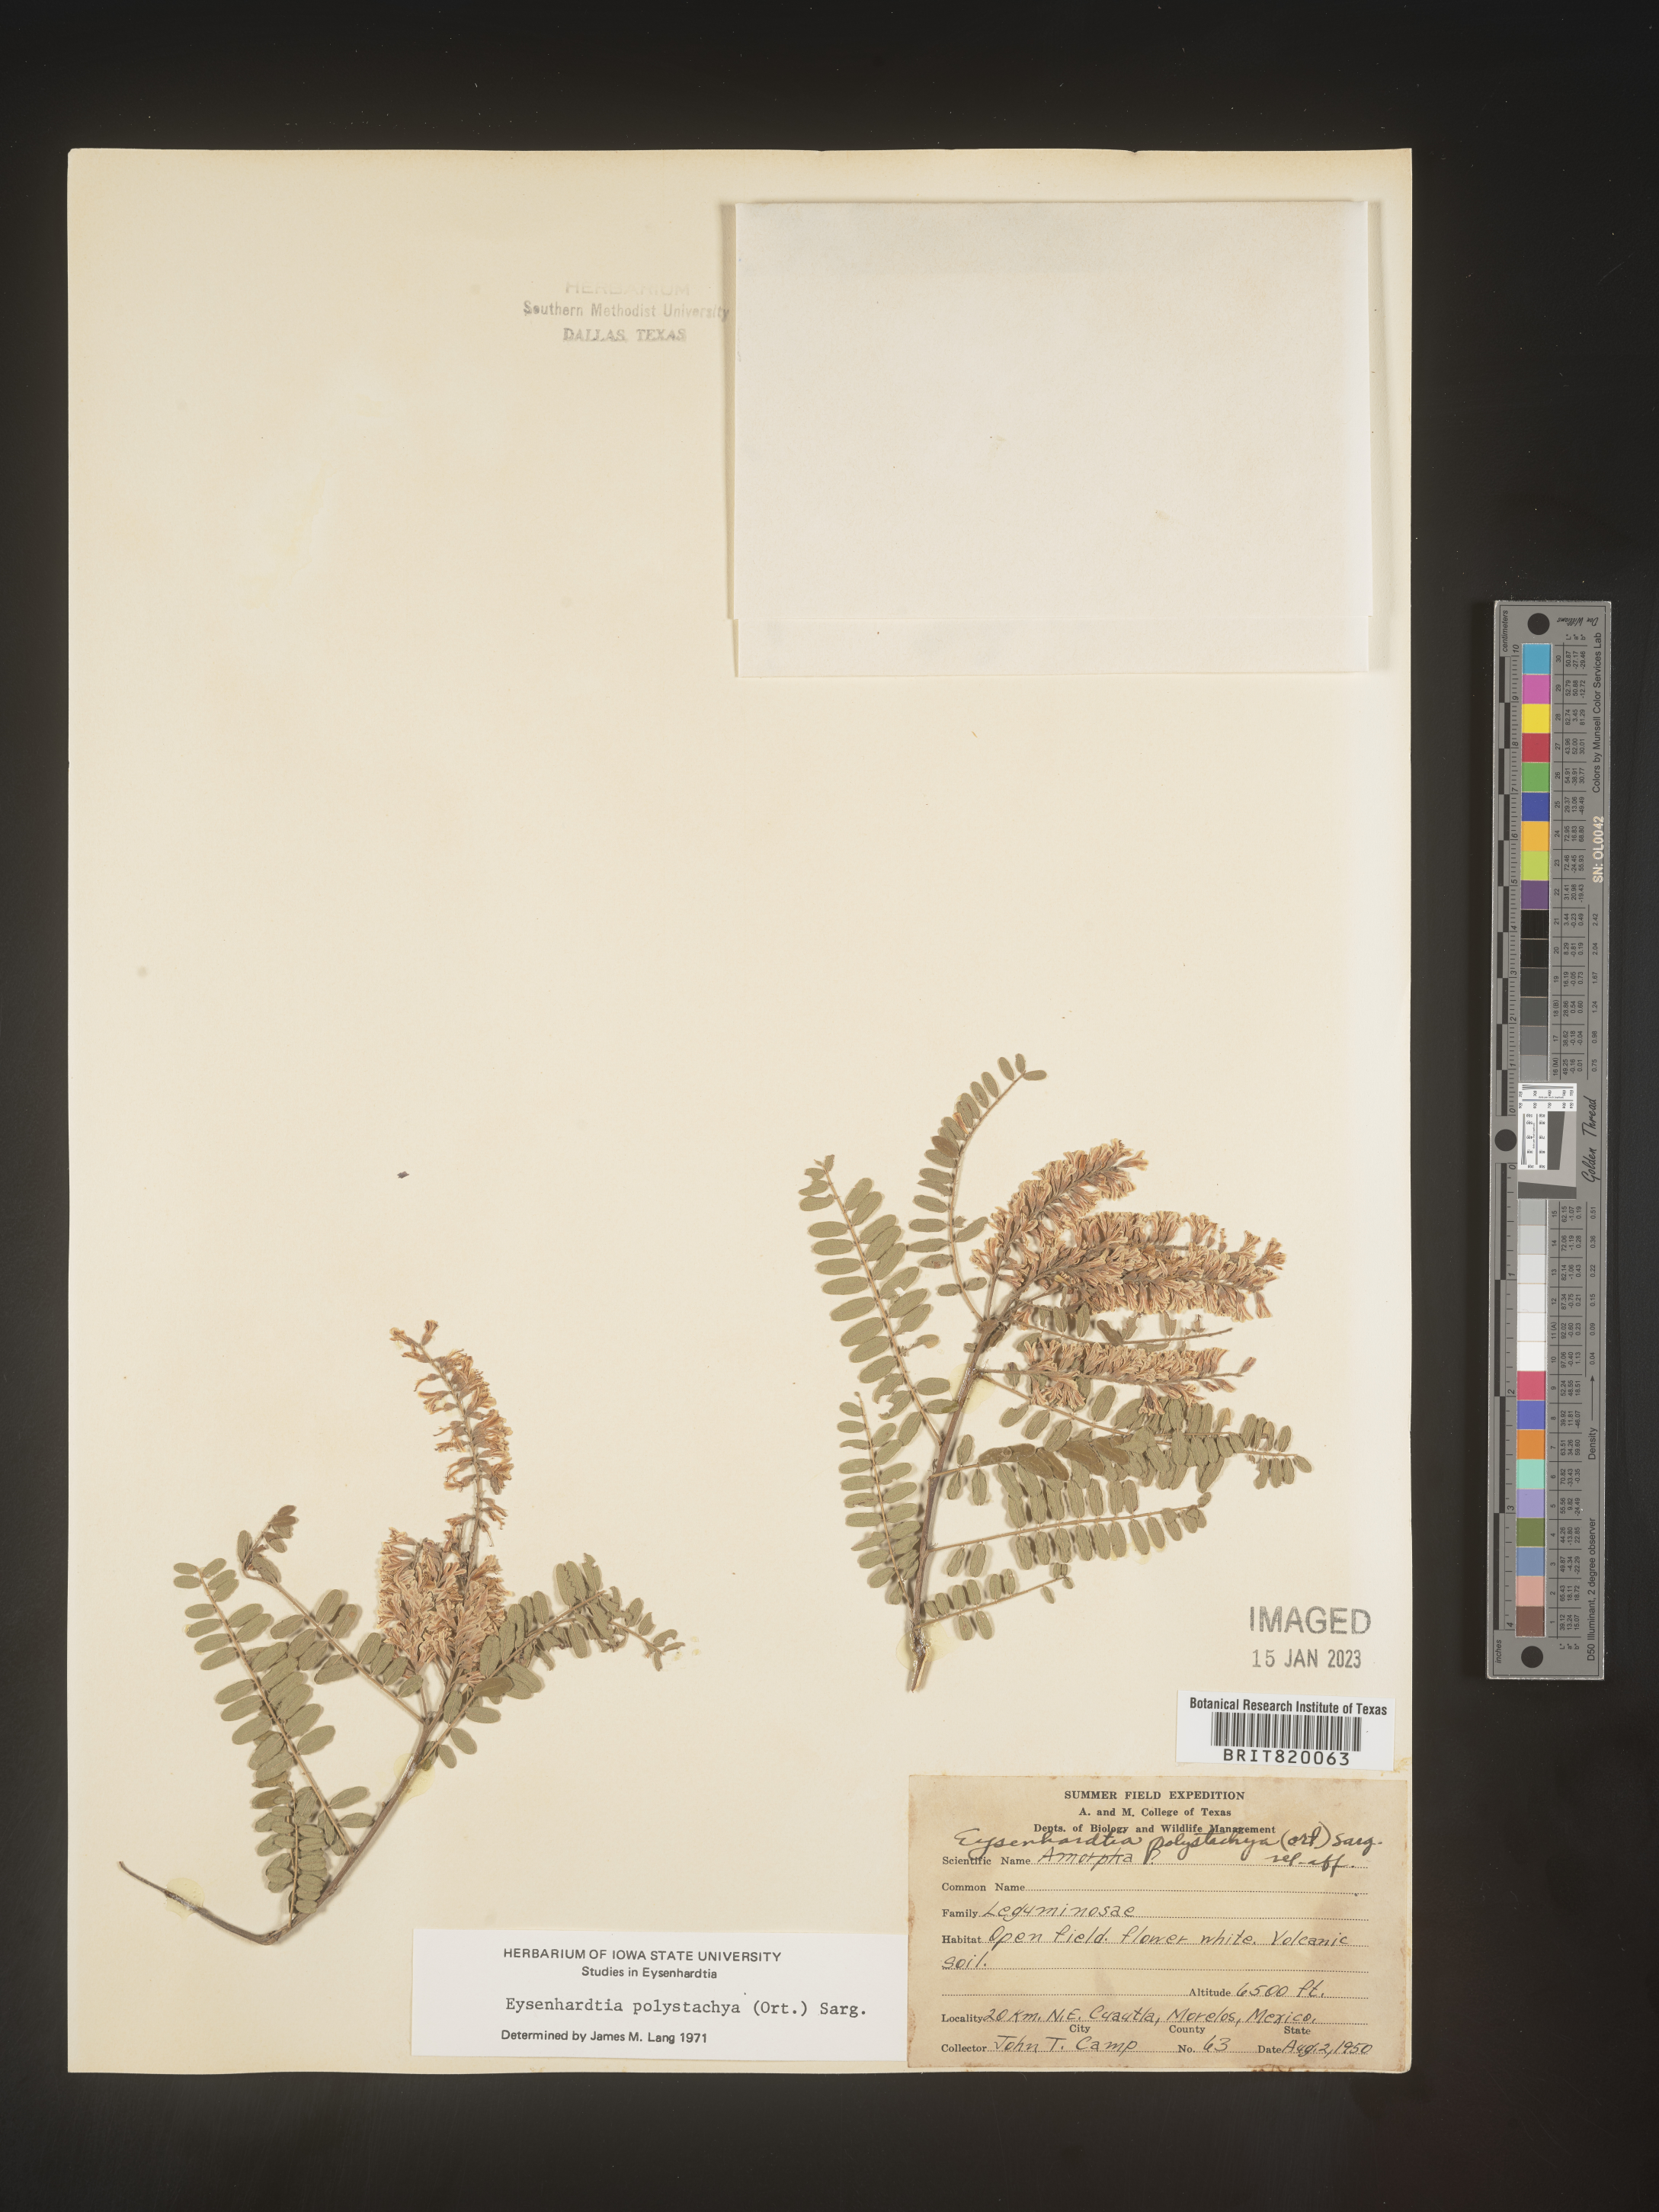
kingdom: Plantae
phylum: Tracheophyta
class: Magnoliopsida
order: Fabales
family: Fabaceae
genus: Eysenhardtia
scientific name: Eysenhardtia
